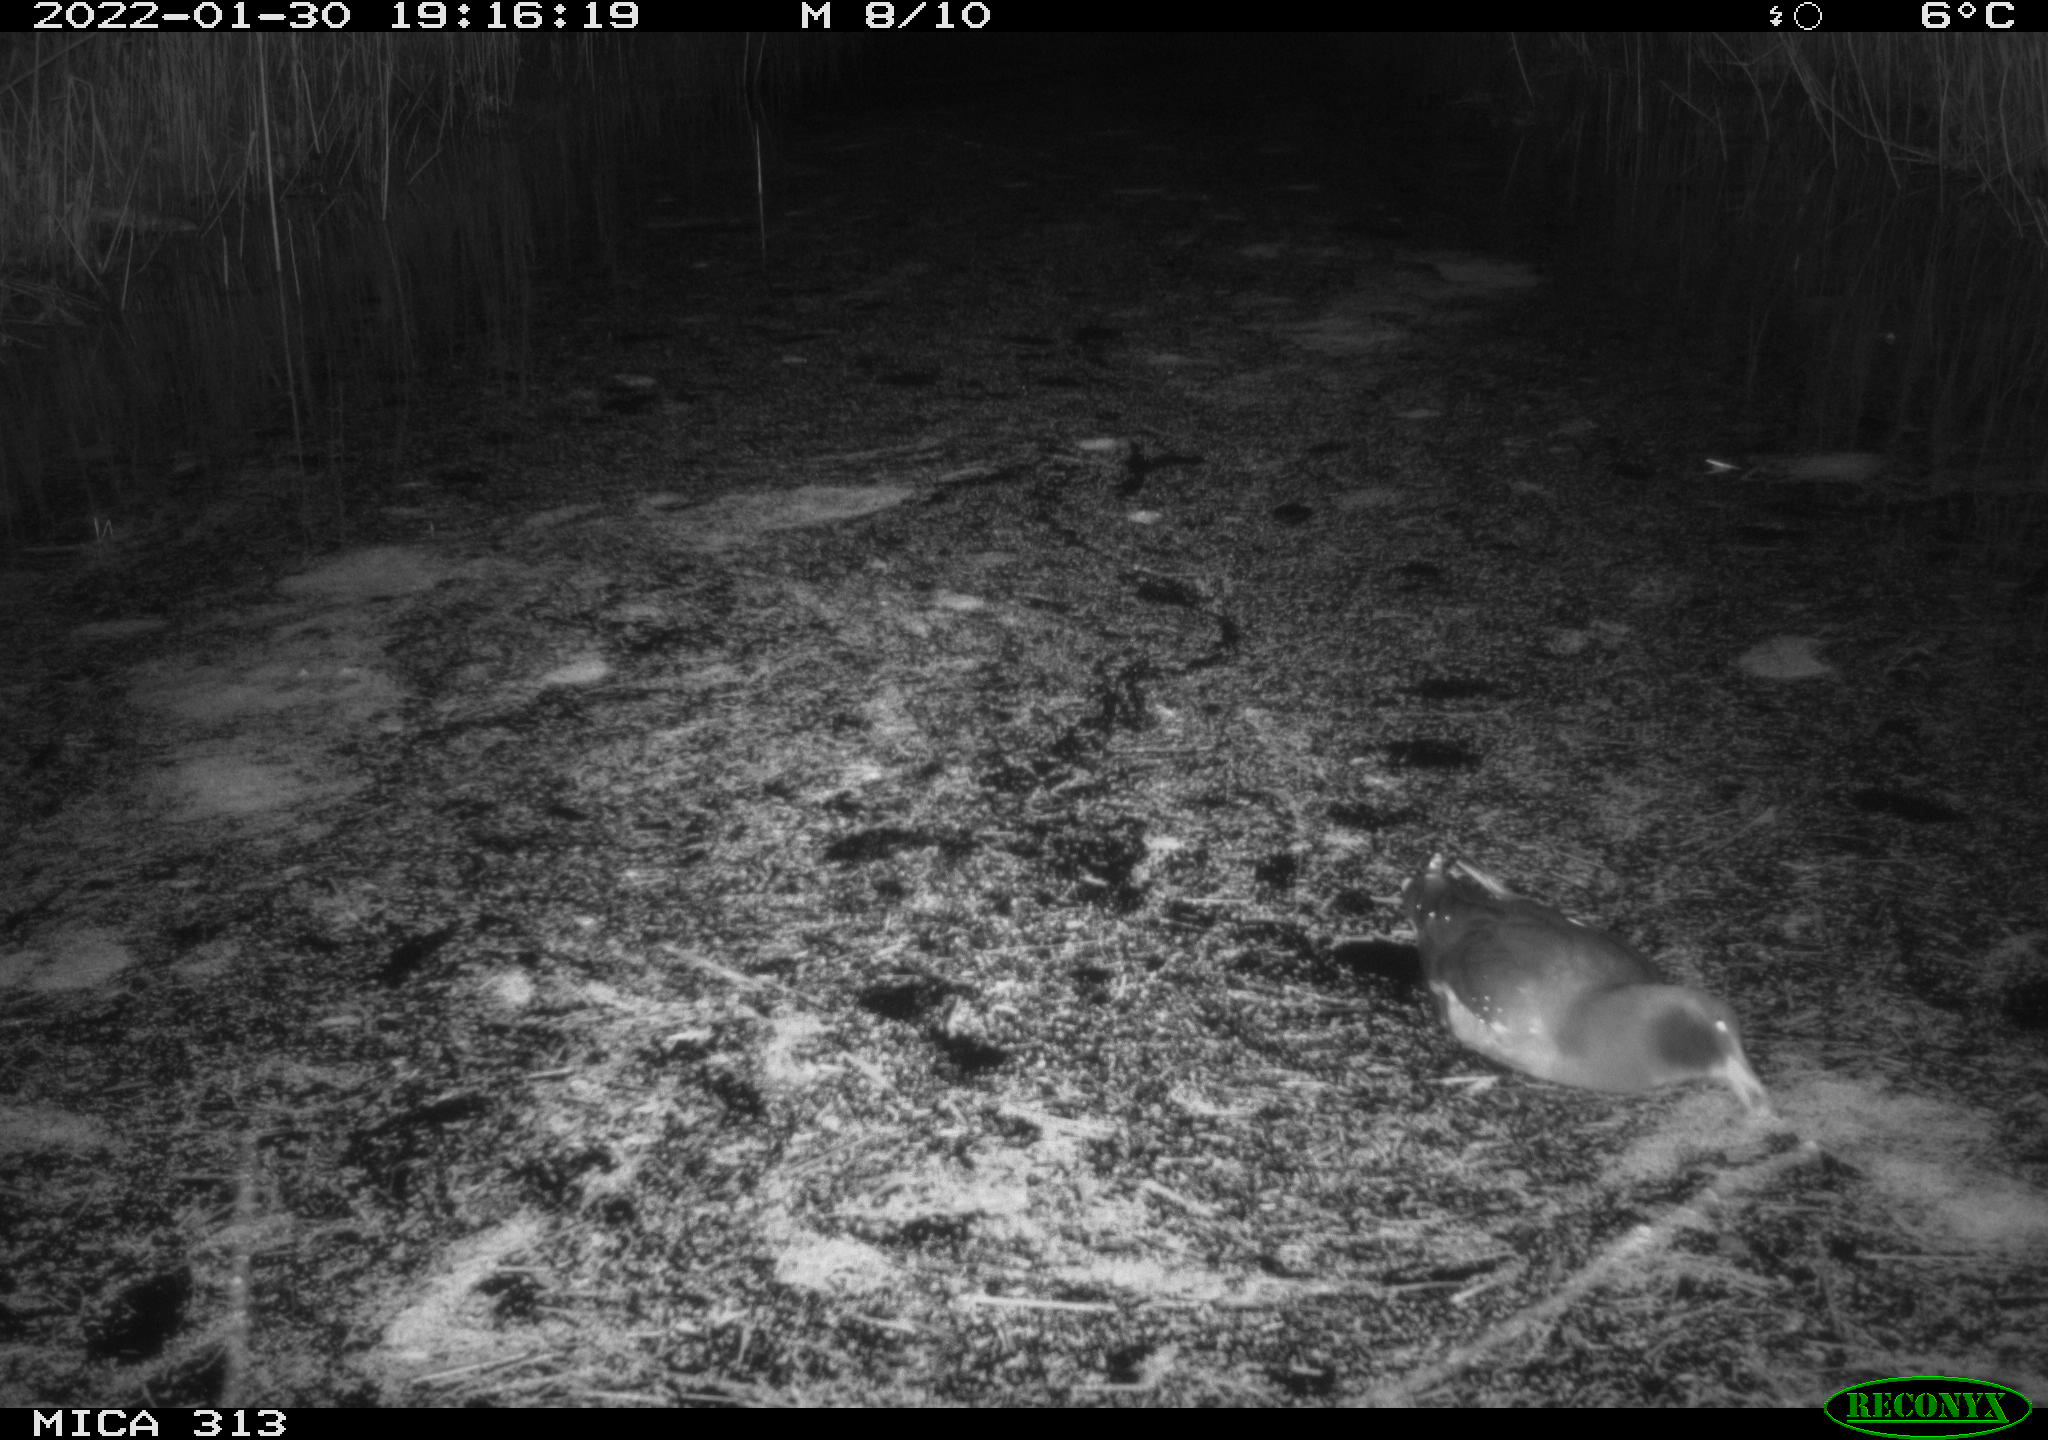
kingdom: Animalia
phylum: Chordata
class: Aves
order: Gruiformes
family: Rallidae
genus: Fulica
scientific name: Fulica atra
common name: Eurasian coot
